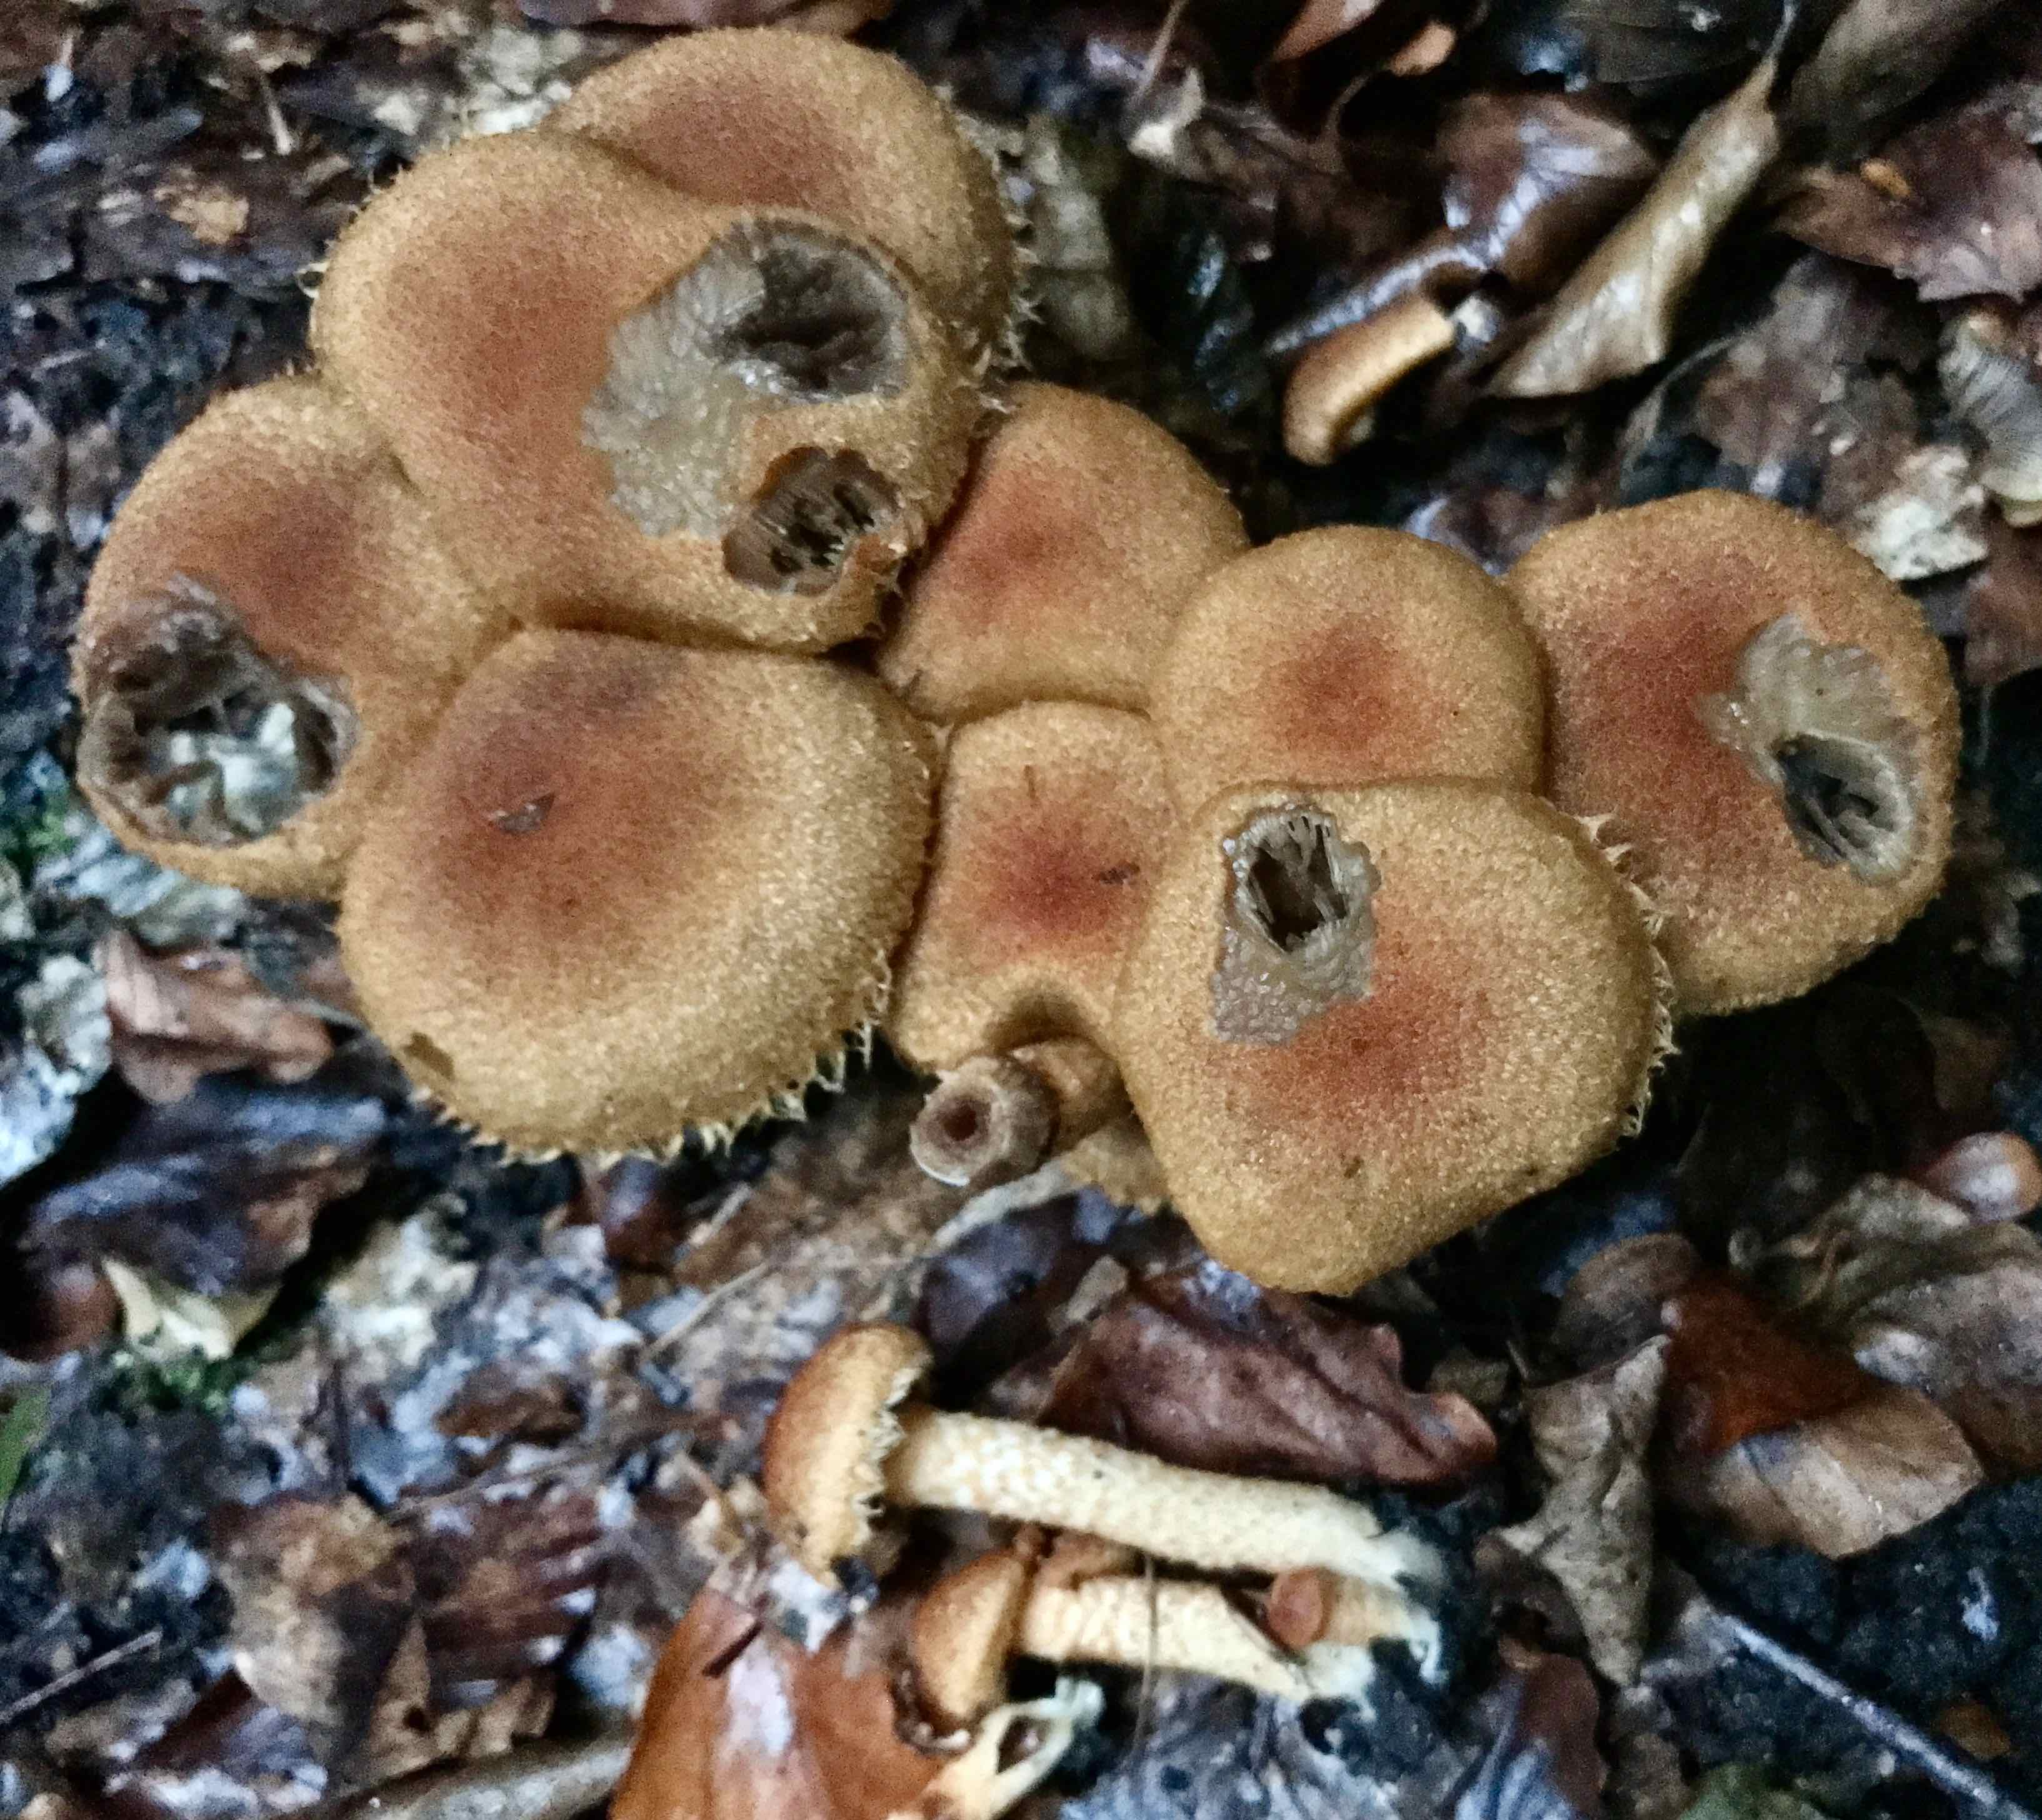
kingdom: Fungi
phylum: Basidiomycota
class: Agaricomycetes
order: Agaricales
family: Psathyrellaceae
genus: Lacrymaria
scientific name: Lacrymaria pyrotricha
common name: ildhåret mørkhat
